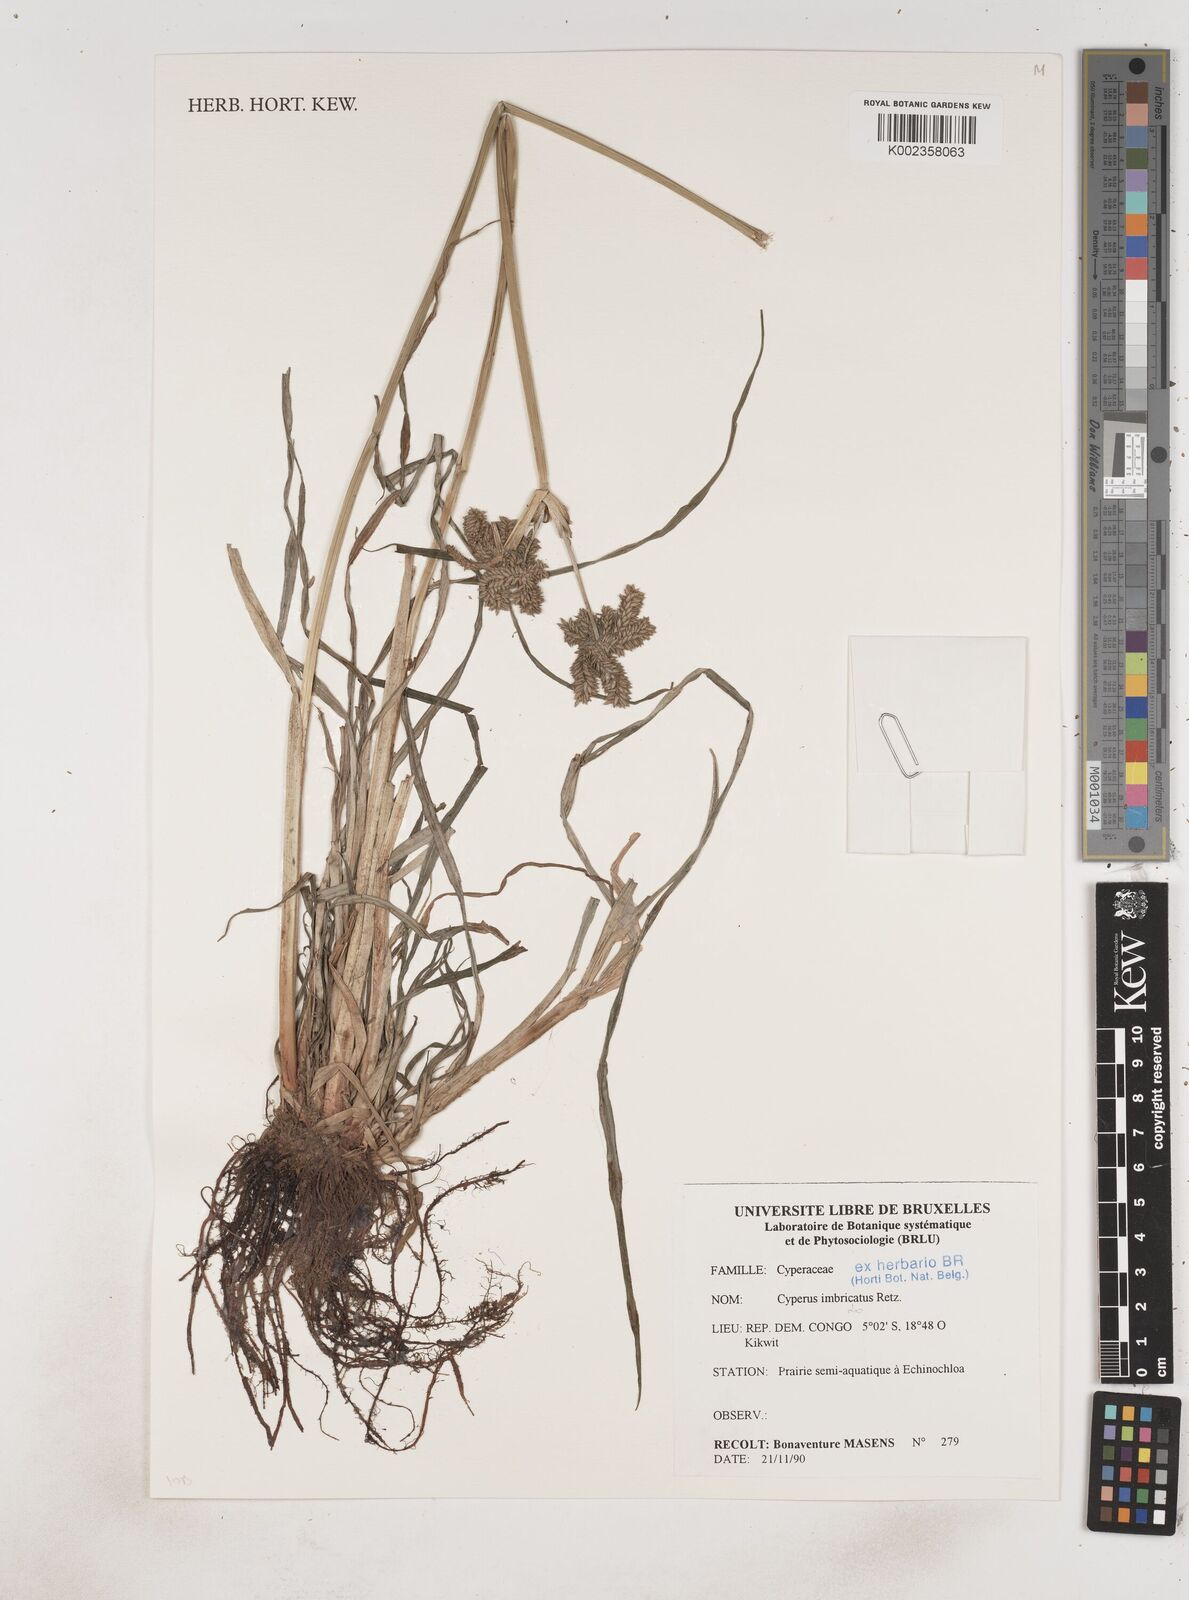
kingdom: Plantae
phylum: Tracheophyta
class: Liliopsida
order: Poales
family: Cyperaceae
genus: Cyperus
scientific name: Cyperus imbricatus
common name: Shingle flatsedge
